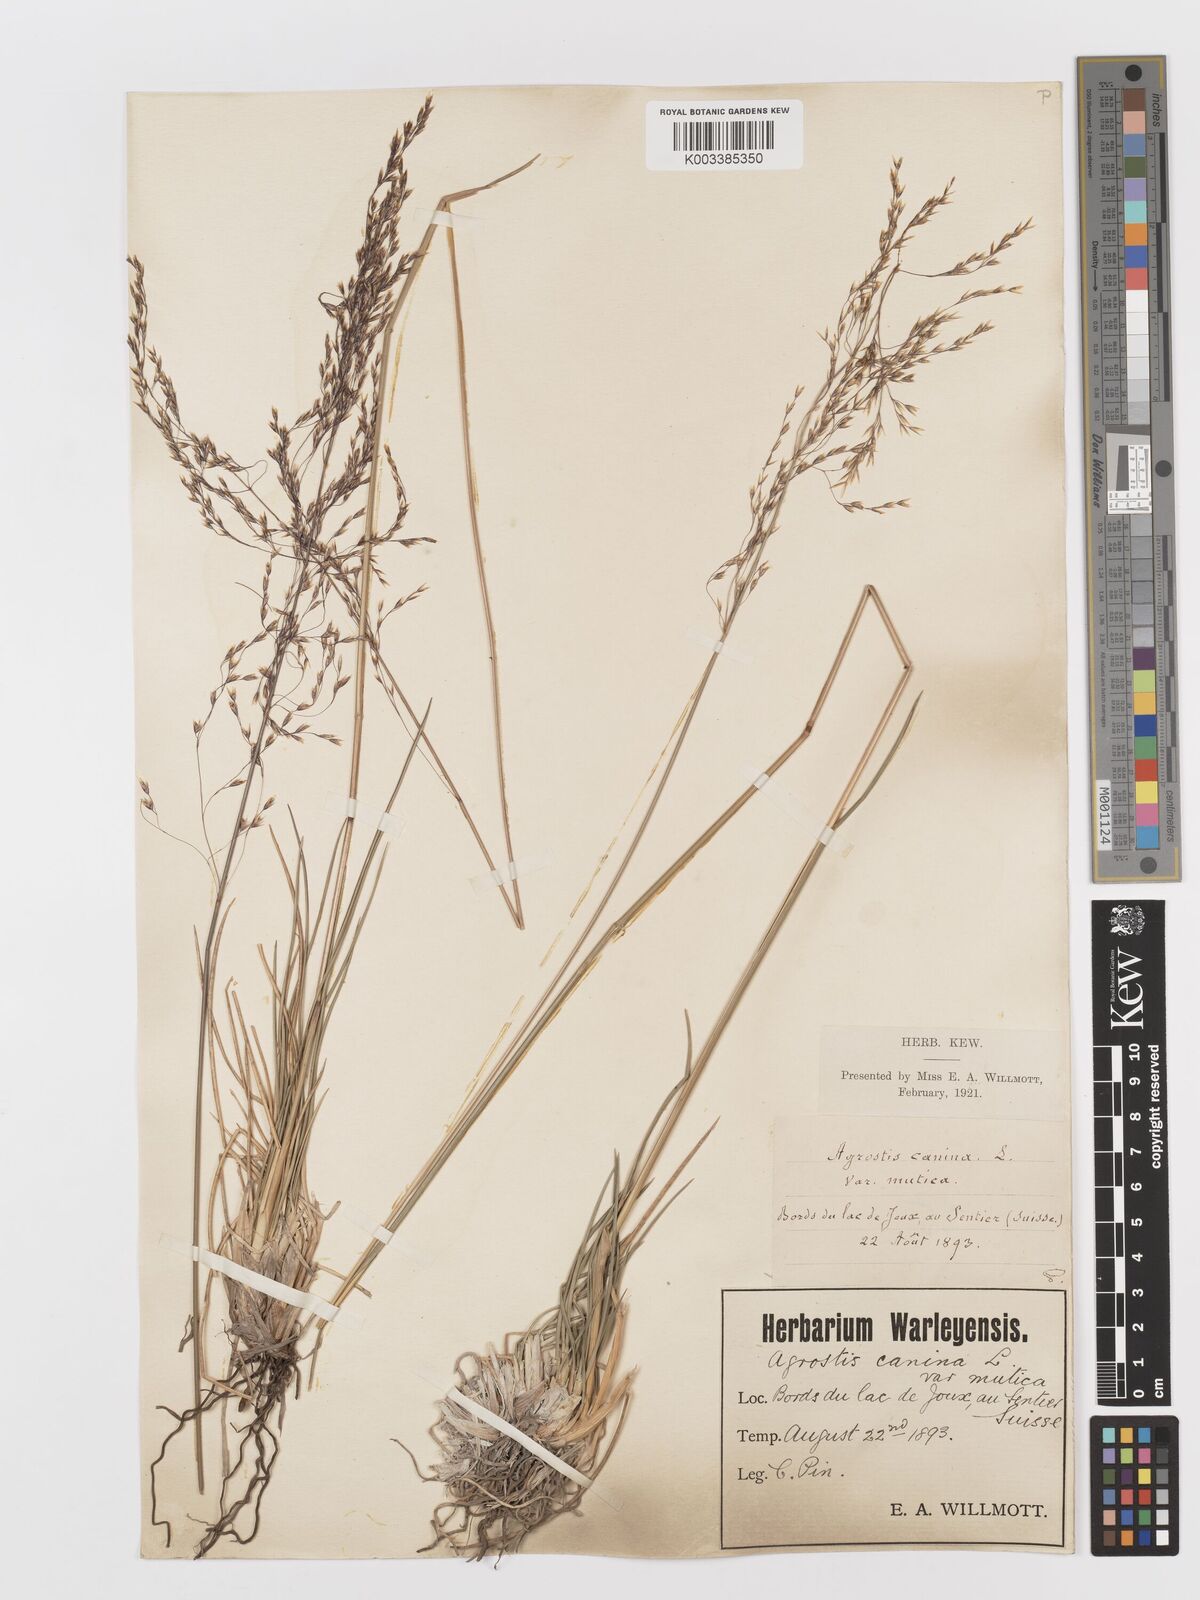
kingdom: Plantae
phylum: Tracheophyta
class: Liliopsida
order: Poales
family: Poaceae
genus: Deschampsia
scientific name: Deschampsia cespitosa
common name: Tufted hair-grass
